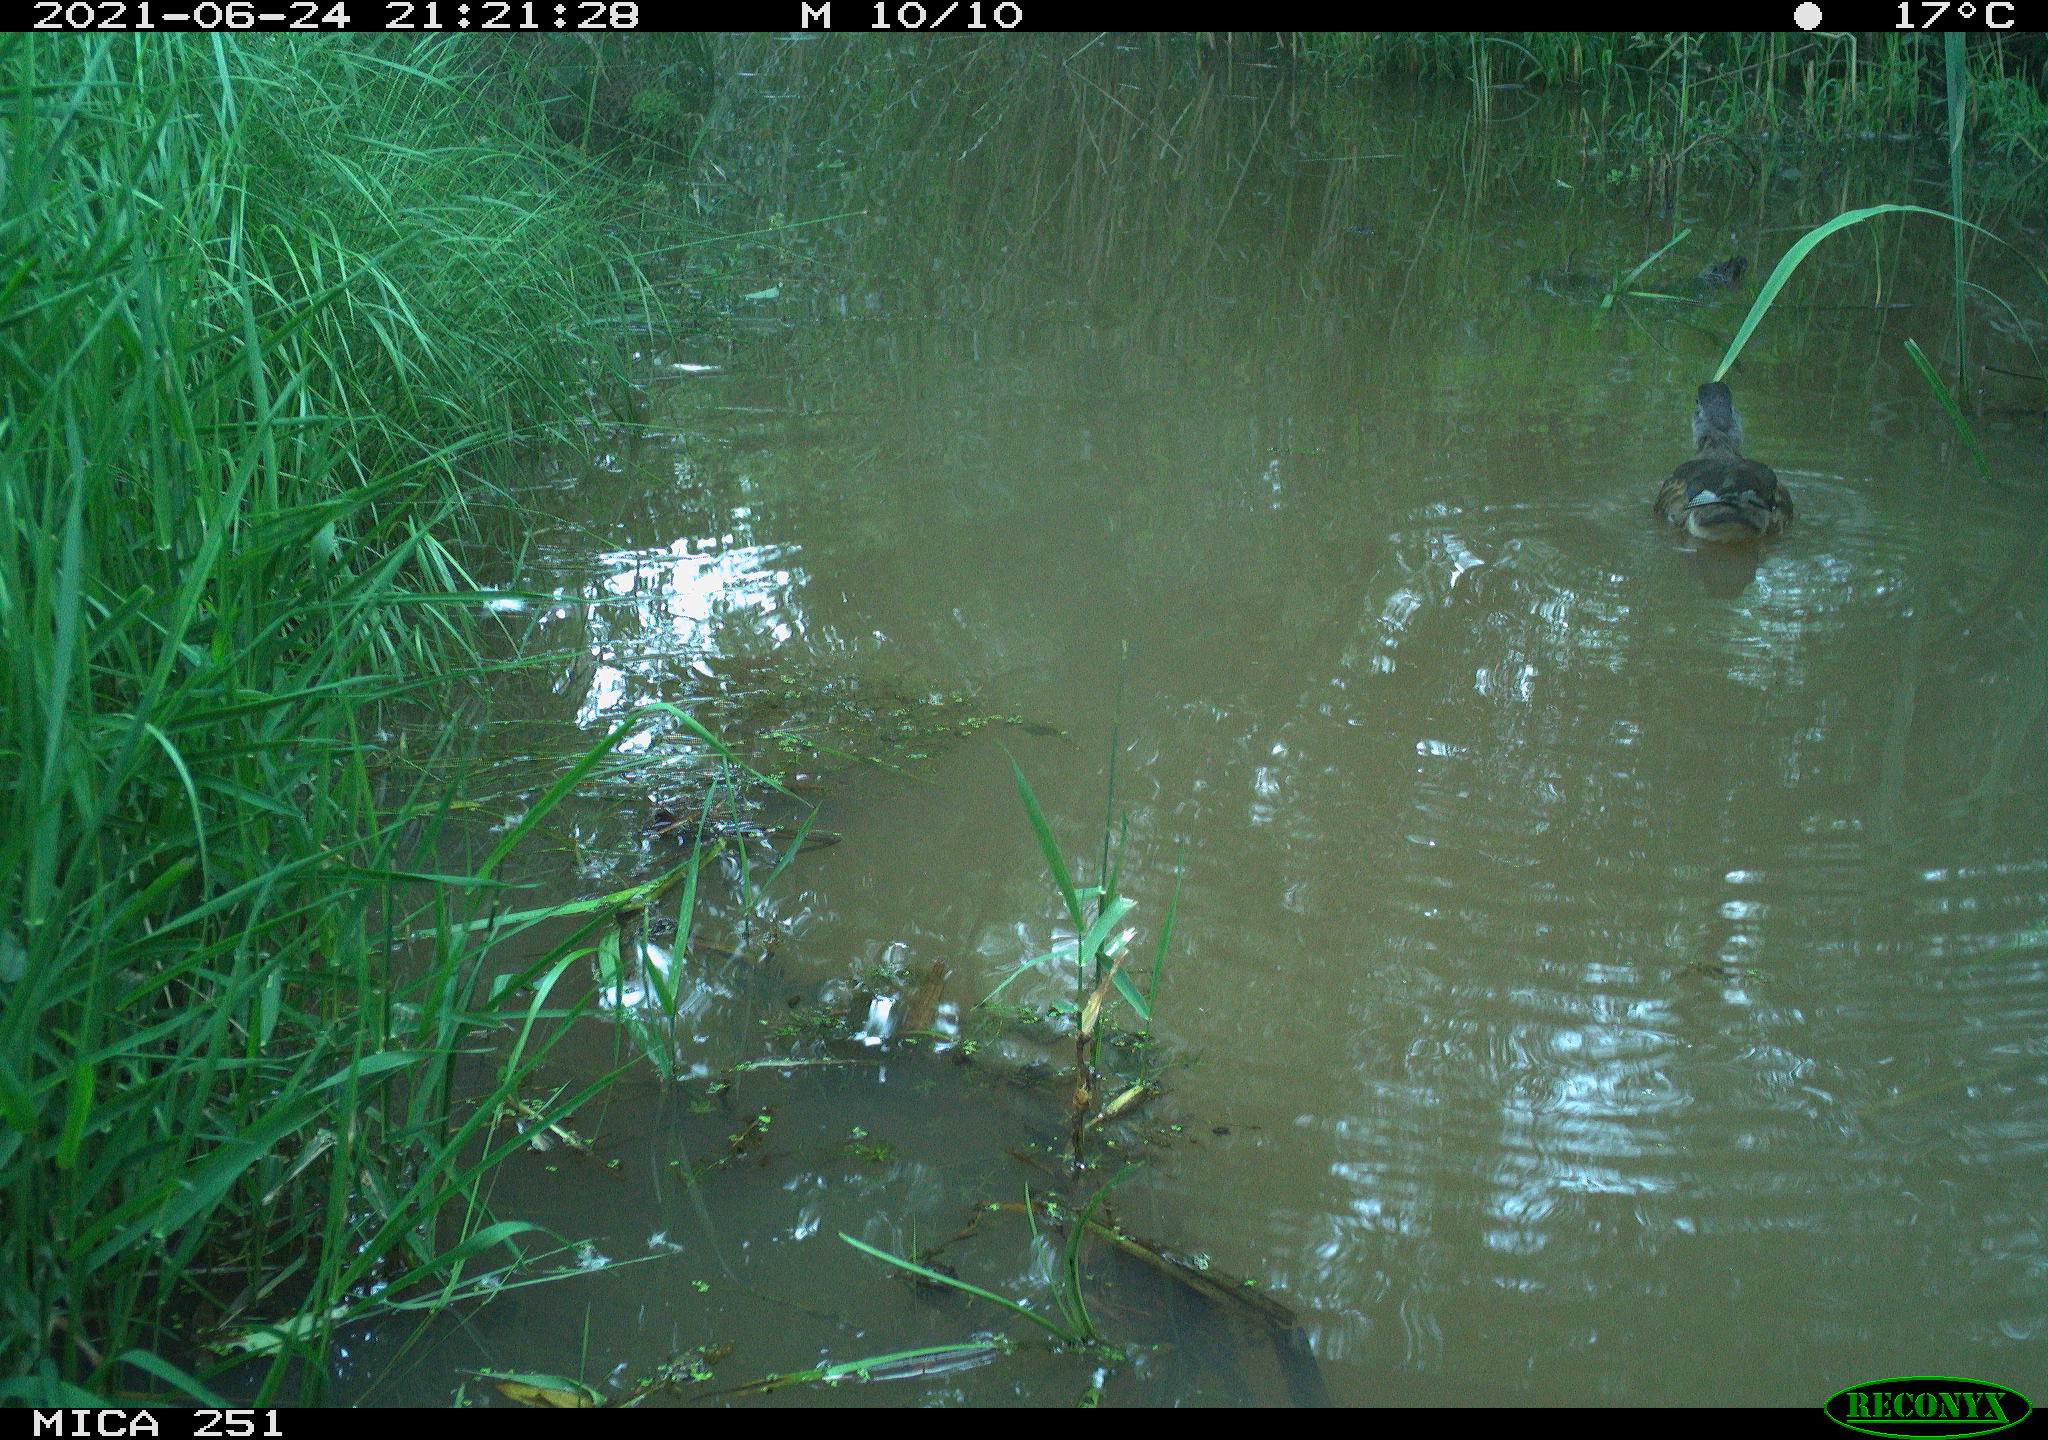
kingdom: Animalia
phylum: Chordata
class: Aves
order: Anseriformes
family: Anatidae
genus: Aix
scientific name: Aix galericulata
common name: Mandarin duck
